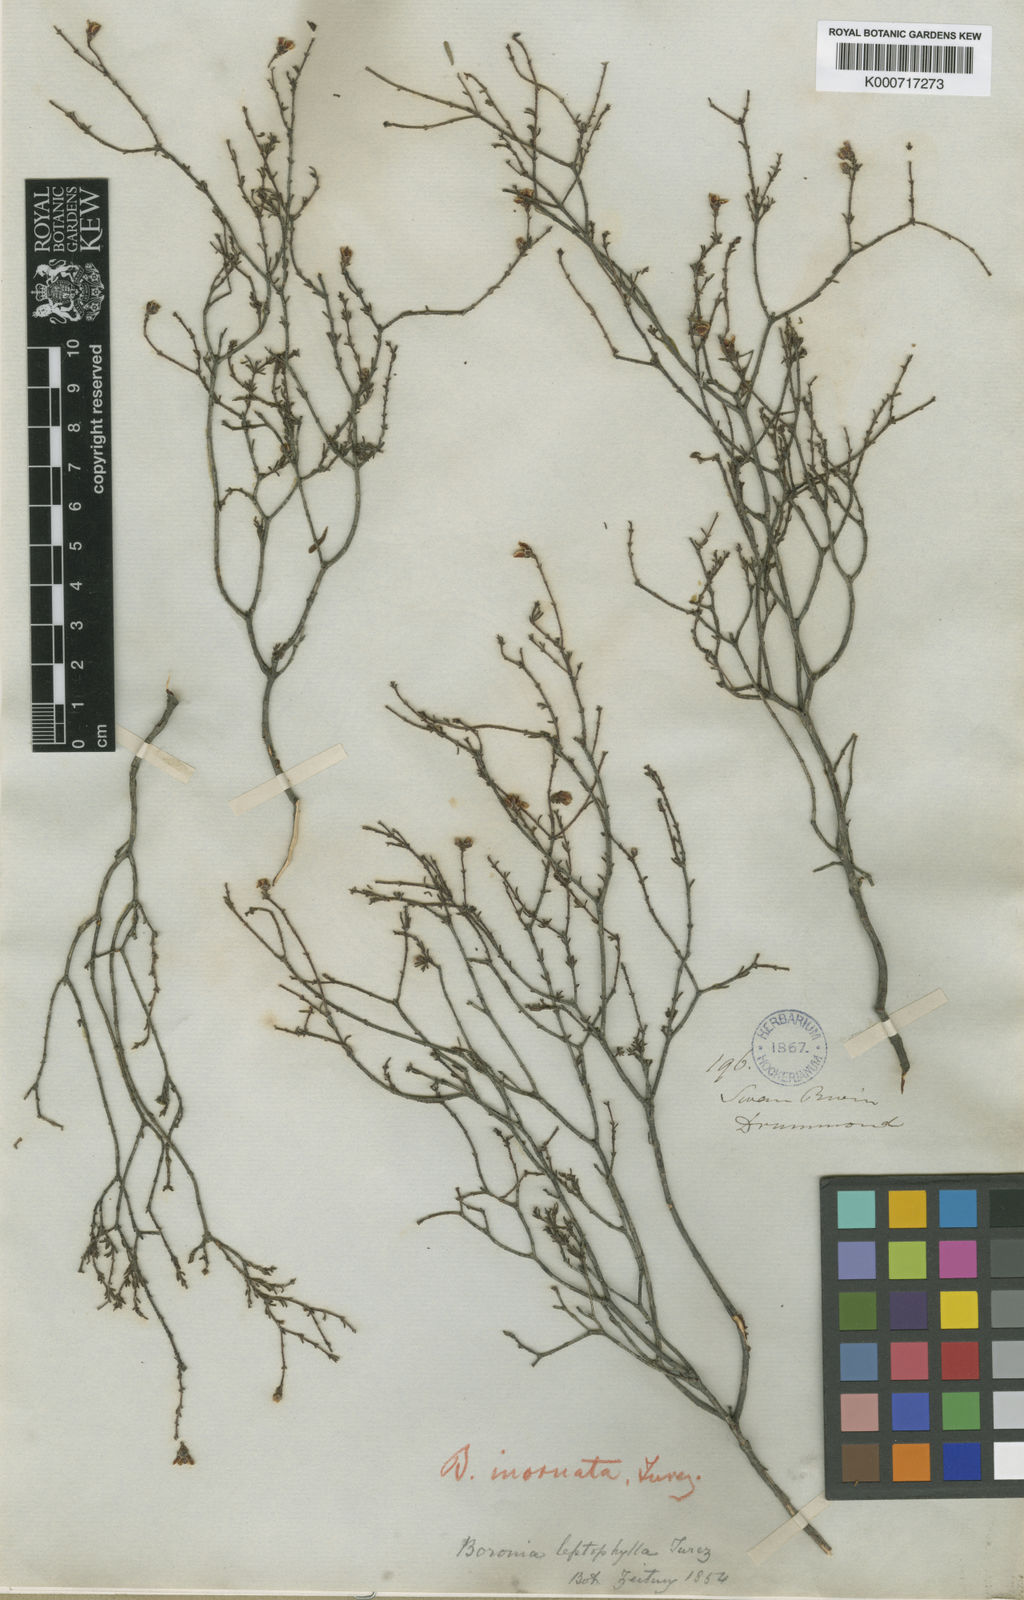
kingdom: Plantae
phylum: Tracheophyta
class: Magnoliopsida
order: Sapindales
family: Rutaceae
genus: Boronia
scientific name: Boronia inornata
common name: Desert boronia
